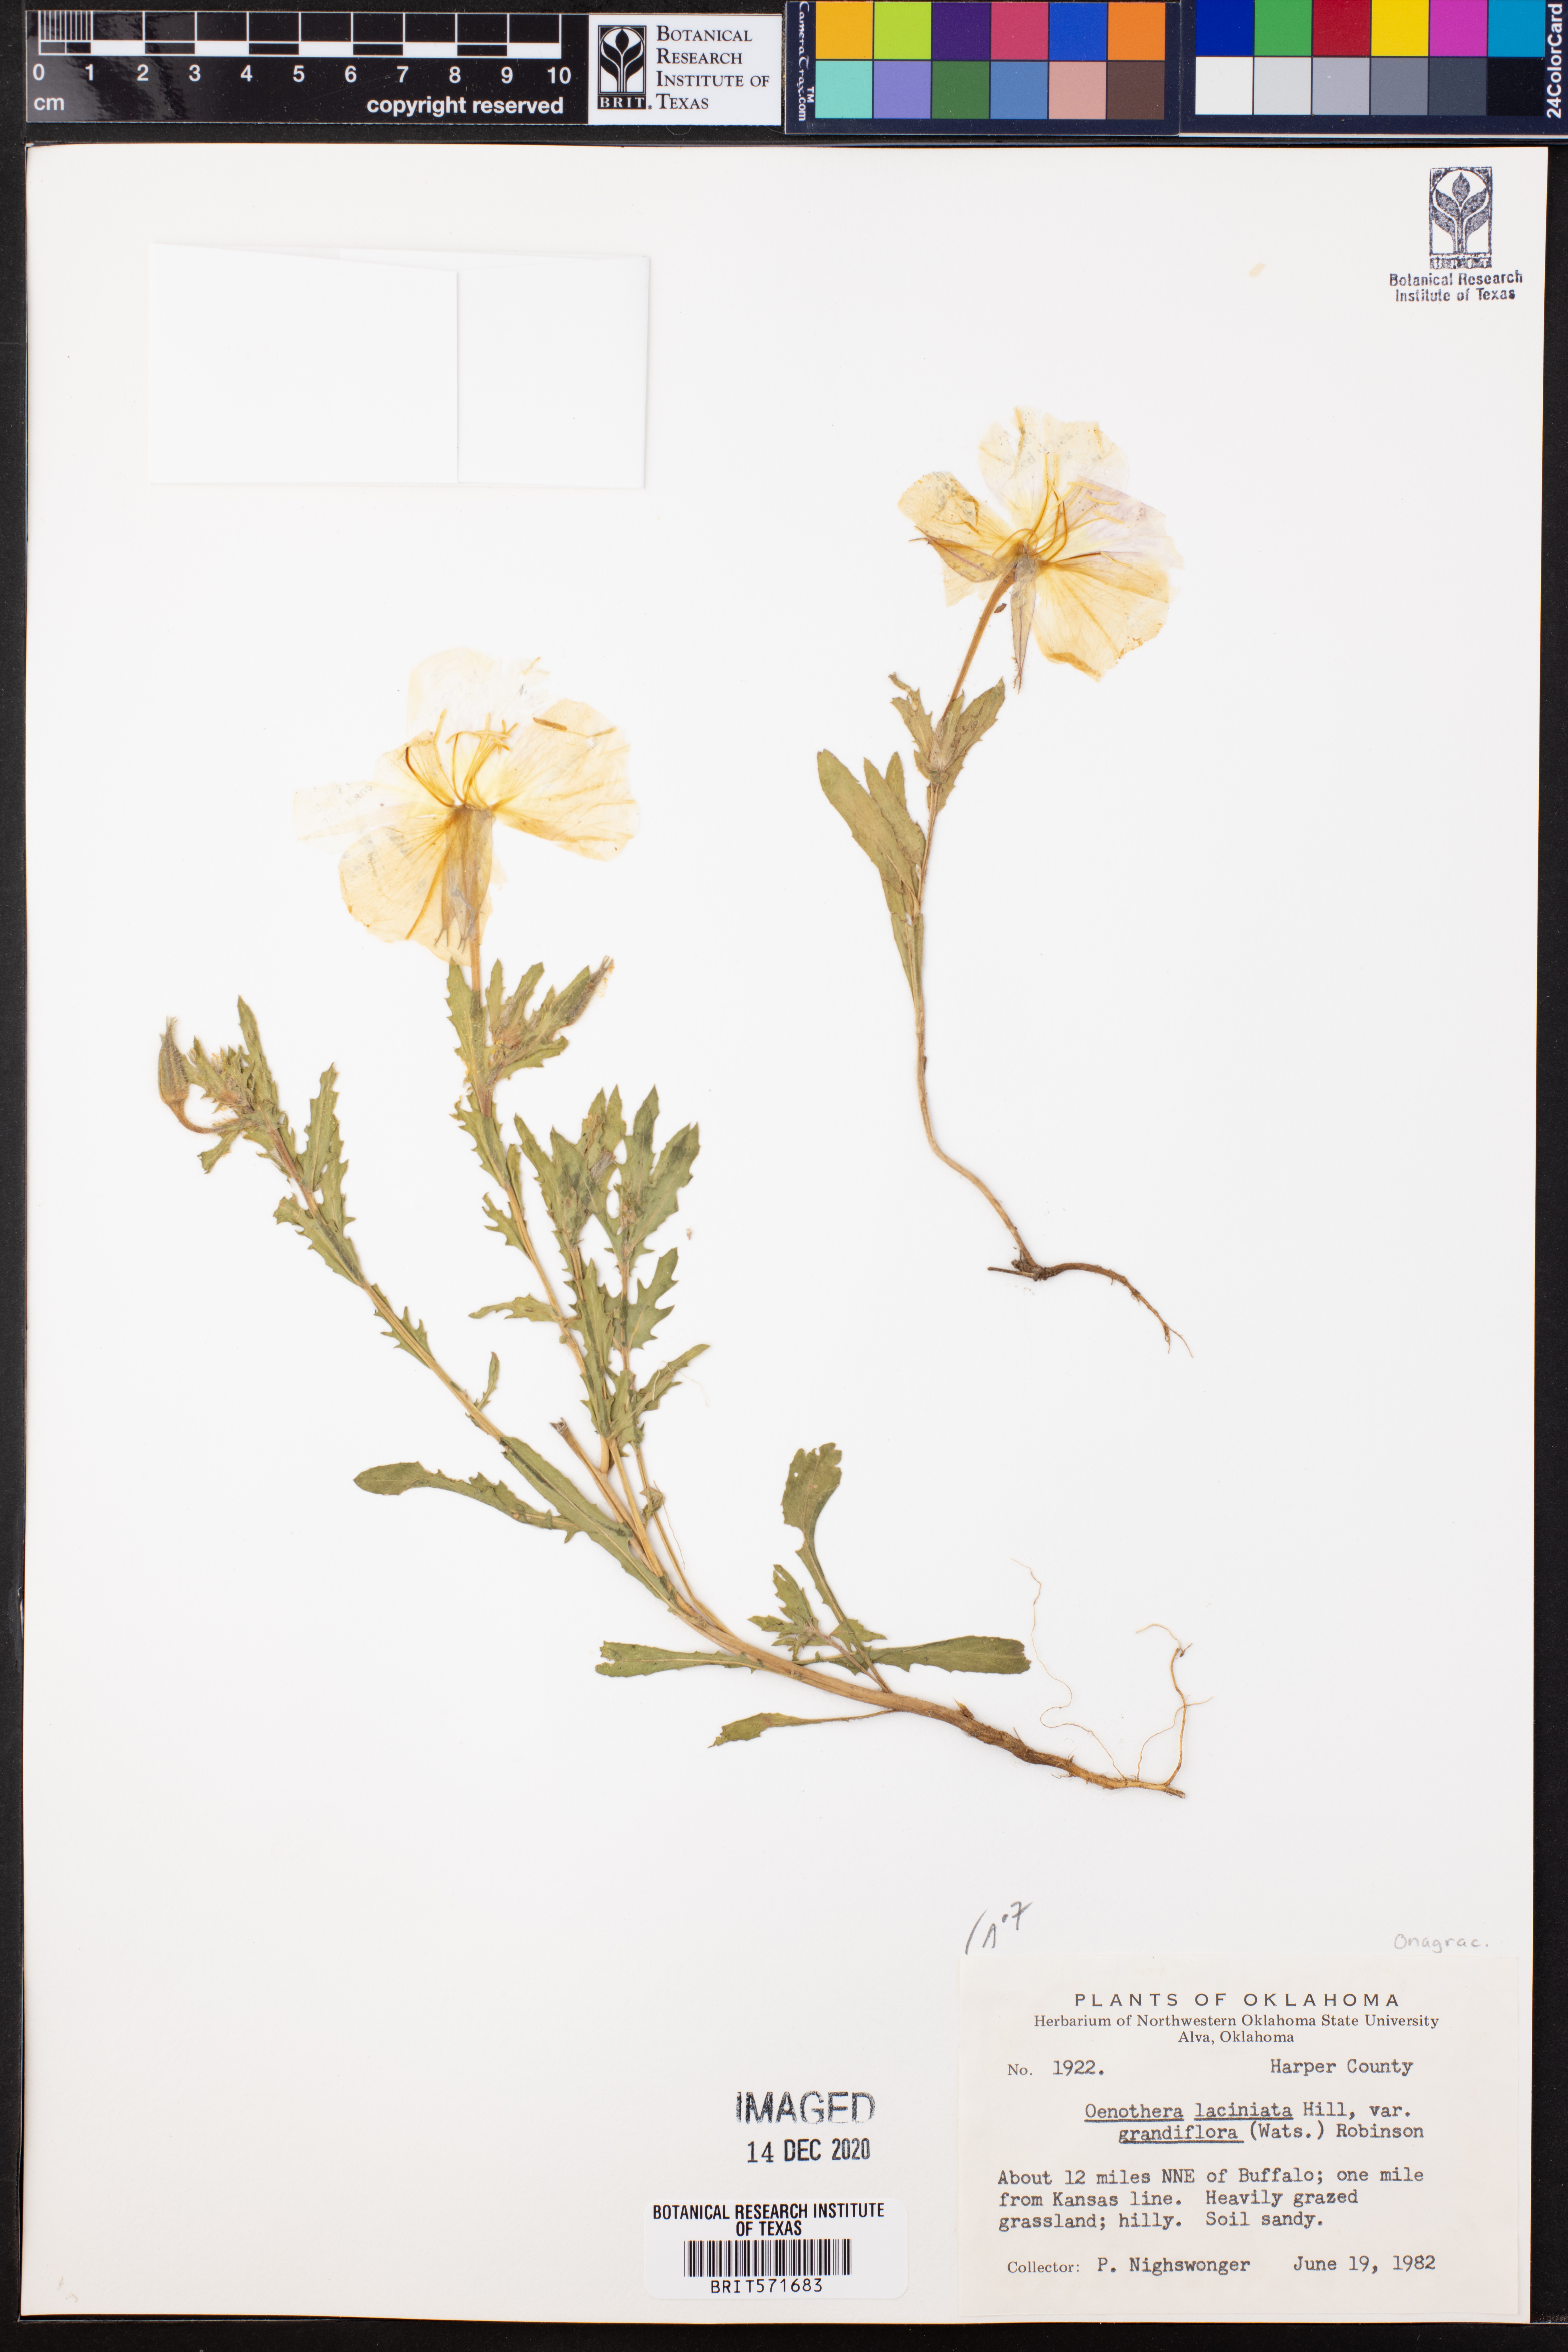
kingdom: Plantae
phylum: Tracheophyta
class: Magnoliopsida
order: Myrtales
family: Onagraceae
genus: Oenothera
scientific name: Oenothera grandis
